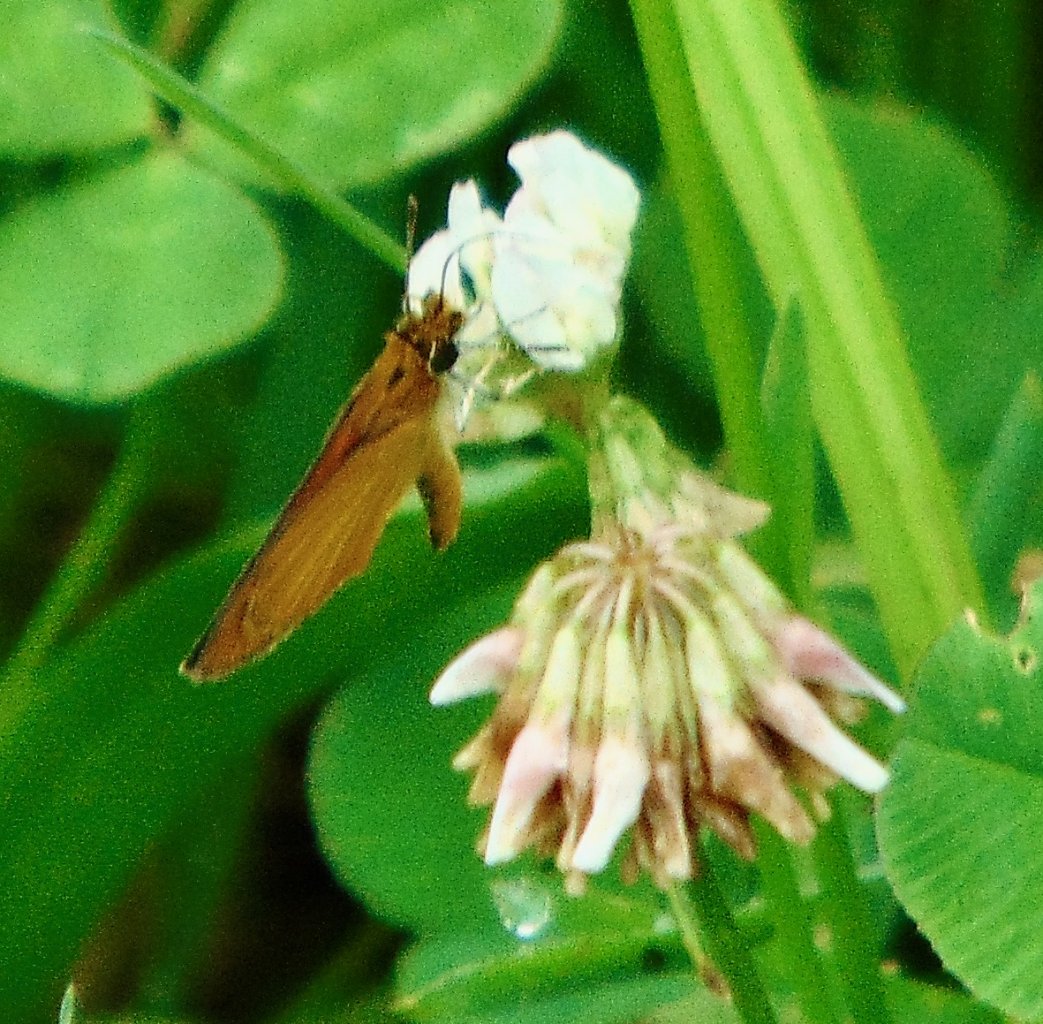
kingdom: Animalia
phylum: Arthropoda
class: Insecta
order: Lepidoptera
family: Hesperiidae
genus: Ancyloxypha
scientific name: Ancyloxypha numitor
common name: Least Skipper
